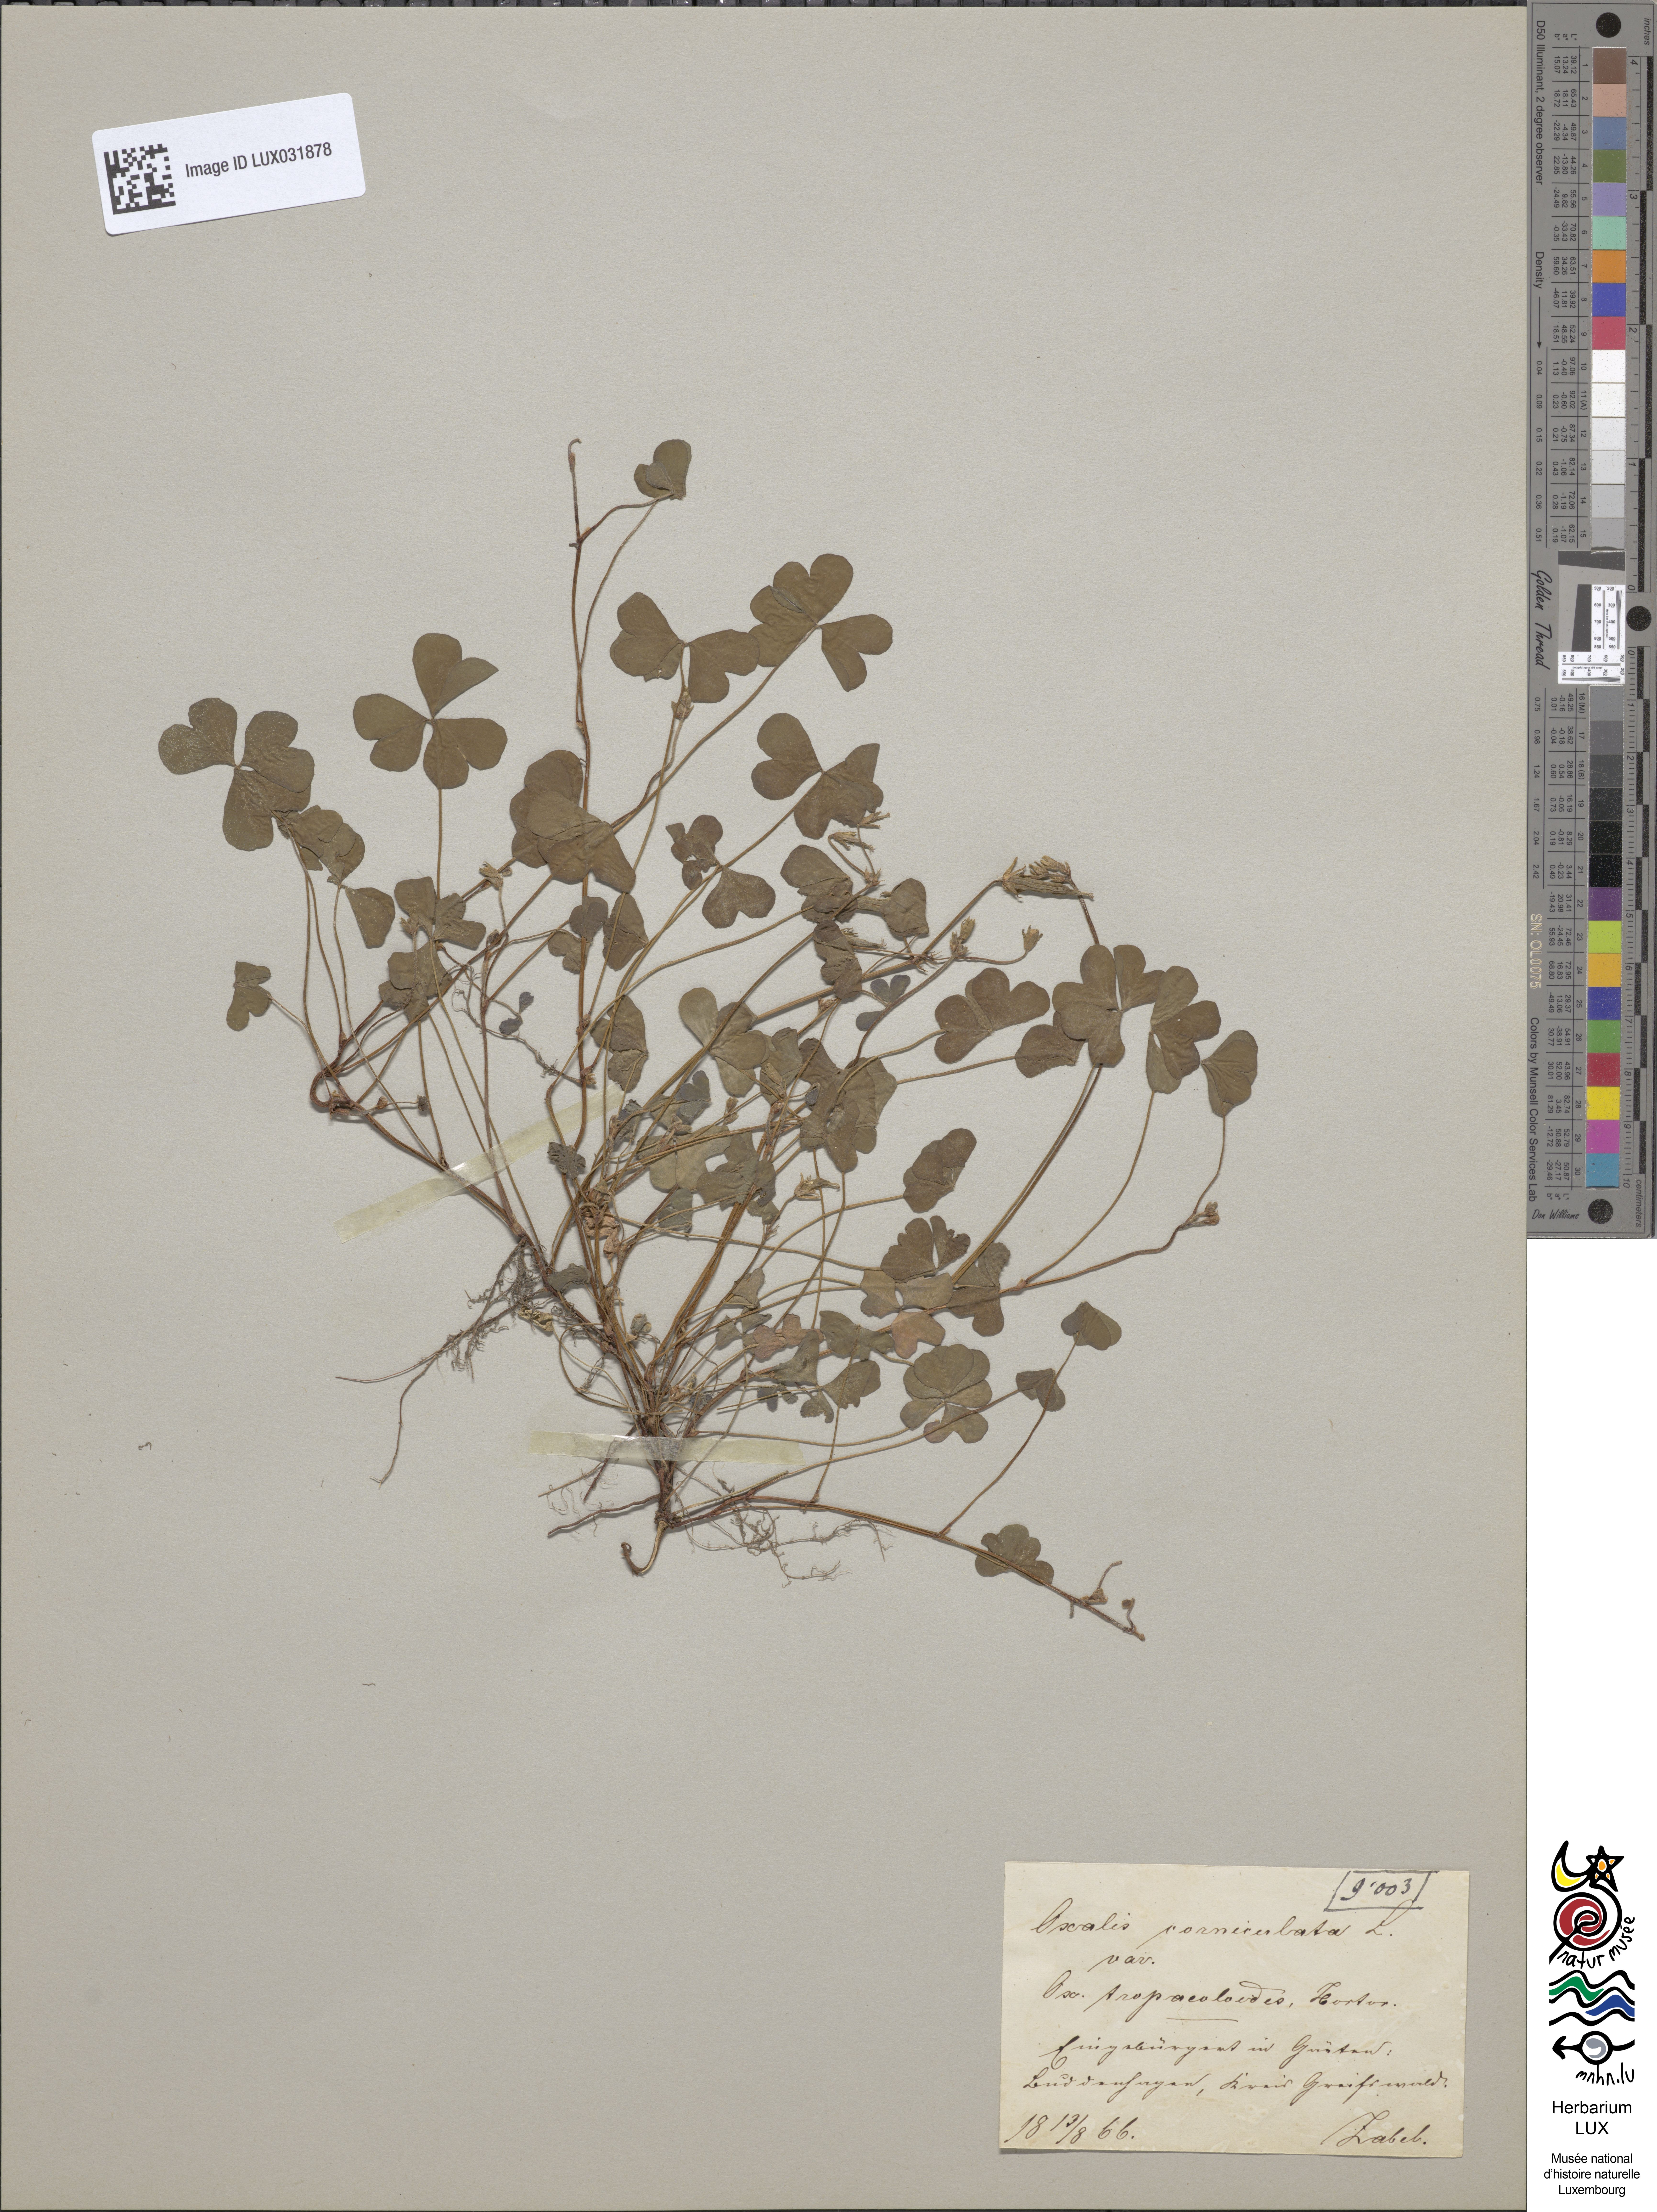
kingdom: Plantae
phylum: Tracheophyta
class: Magnoliopsida
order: Oxalidales
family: Oxalidaceae
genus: Oxalis
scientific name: Oxalis corniculata
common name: Procumbent yellow-sorrel
